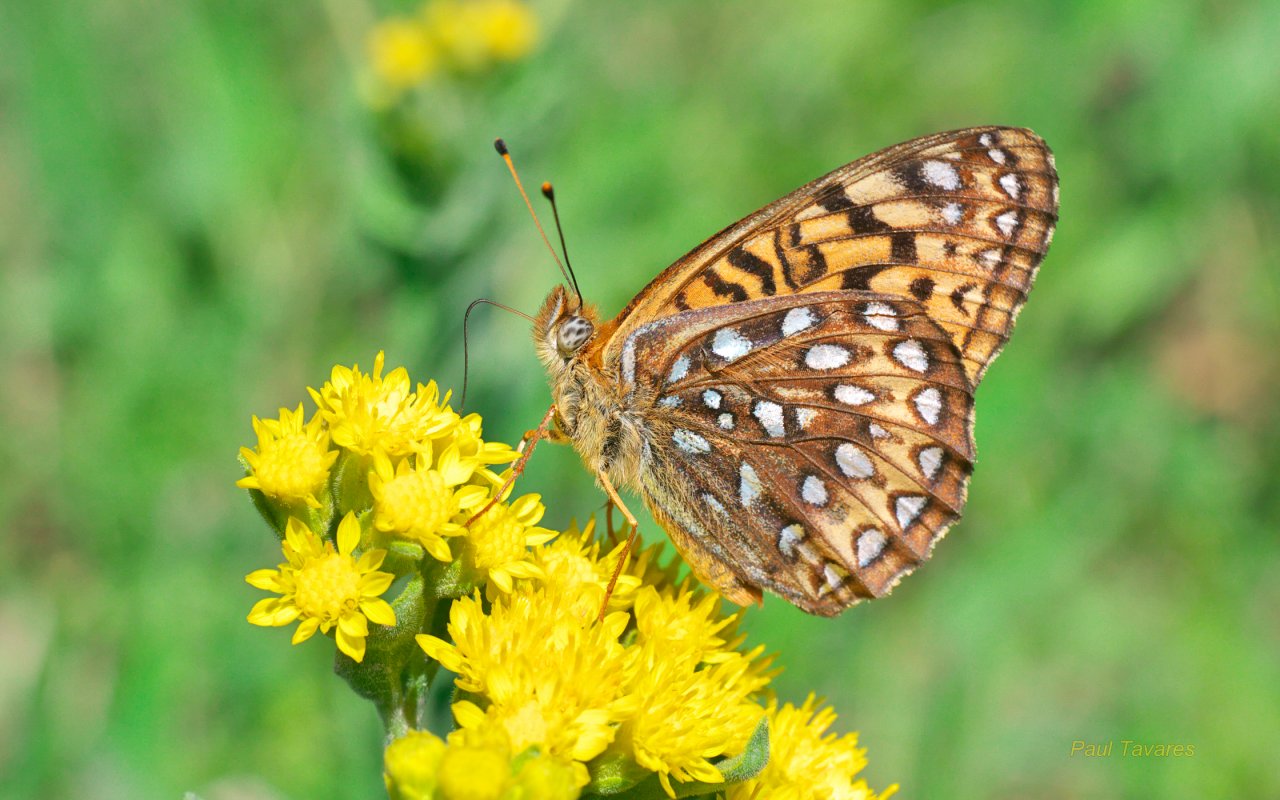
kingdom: Animalia
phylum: Arthropoda
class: Insecta
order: Lepidoptera
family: Nymphalidae
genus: Speyeria
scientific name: Speyeria atlantis
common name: Atlantis Fritillary
